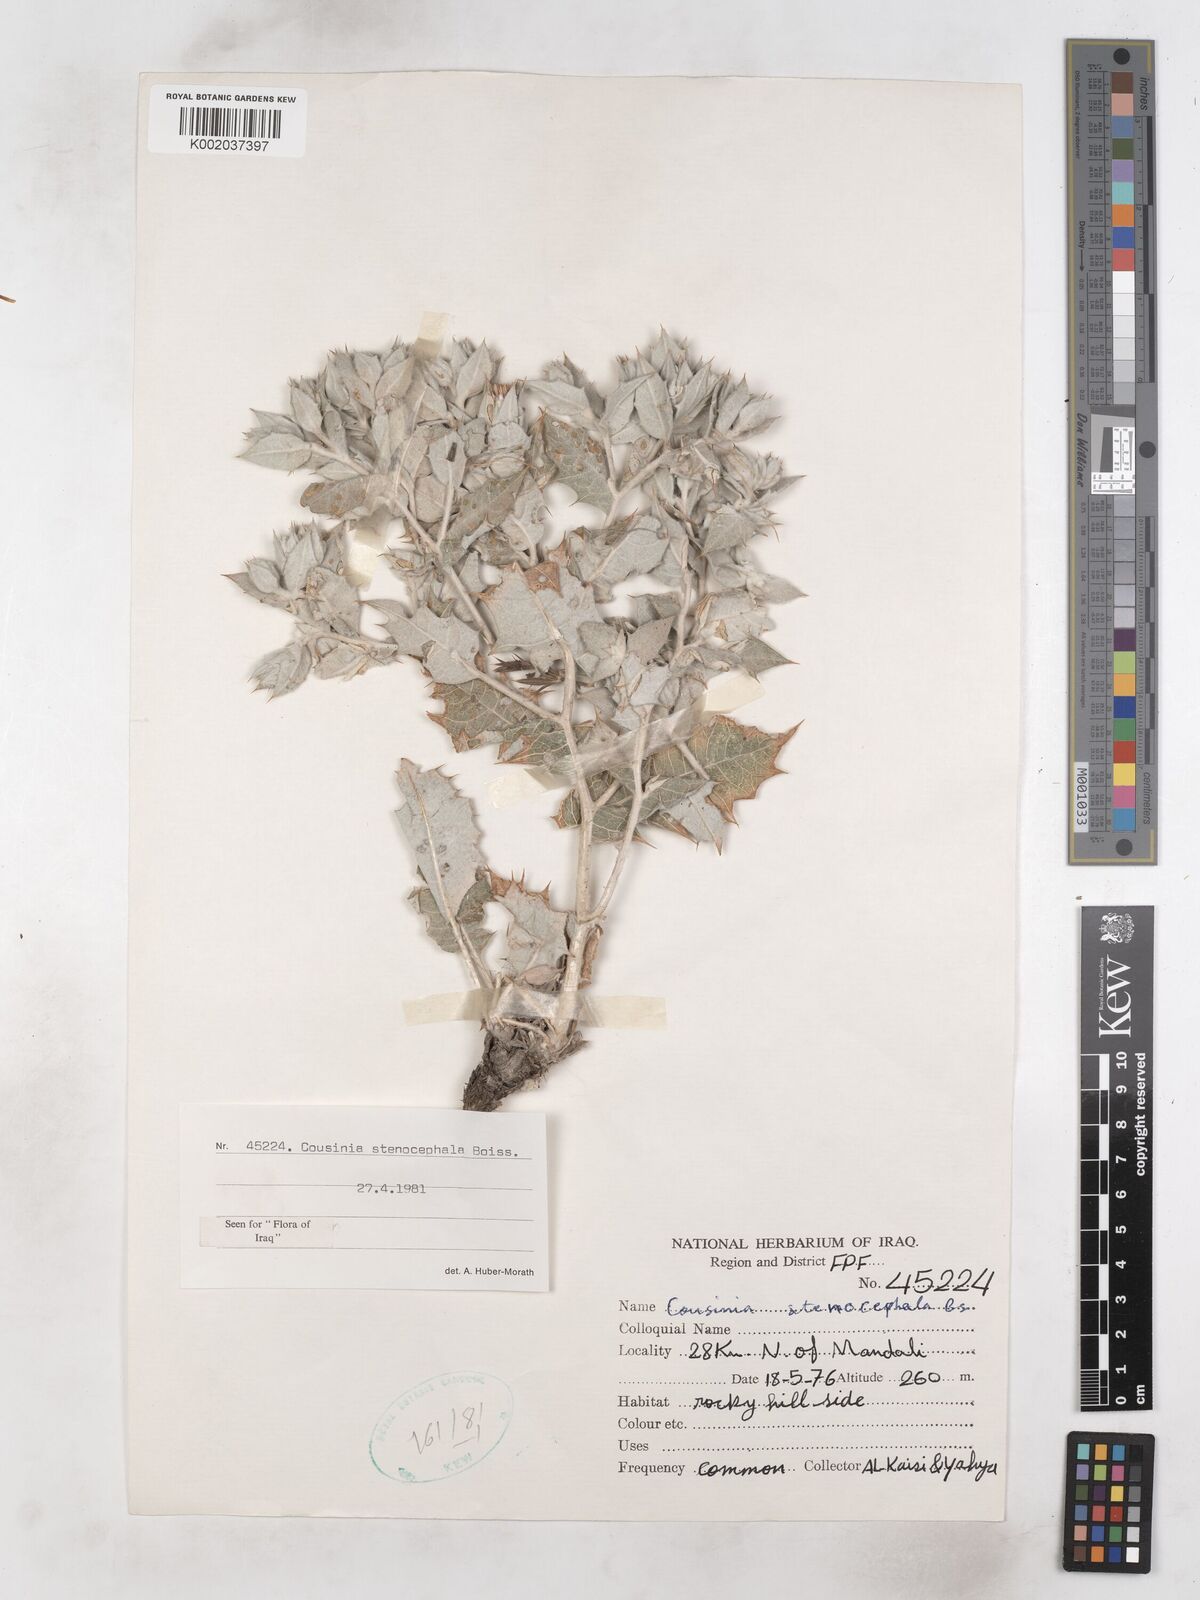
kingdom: Plantae
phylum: Tracheophyta
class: Magnoliopsida
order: Asterales
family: Asteraceae
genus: Cousinia
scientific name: Cousinia stenocephala
